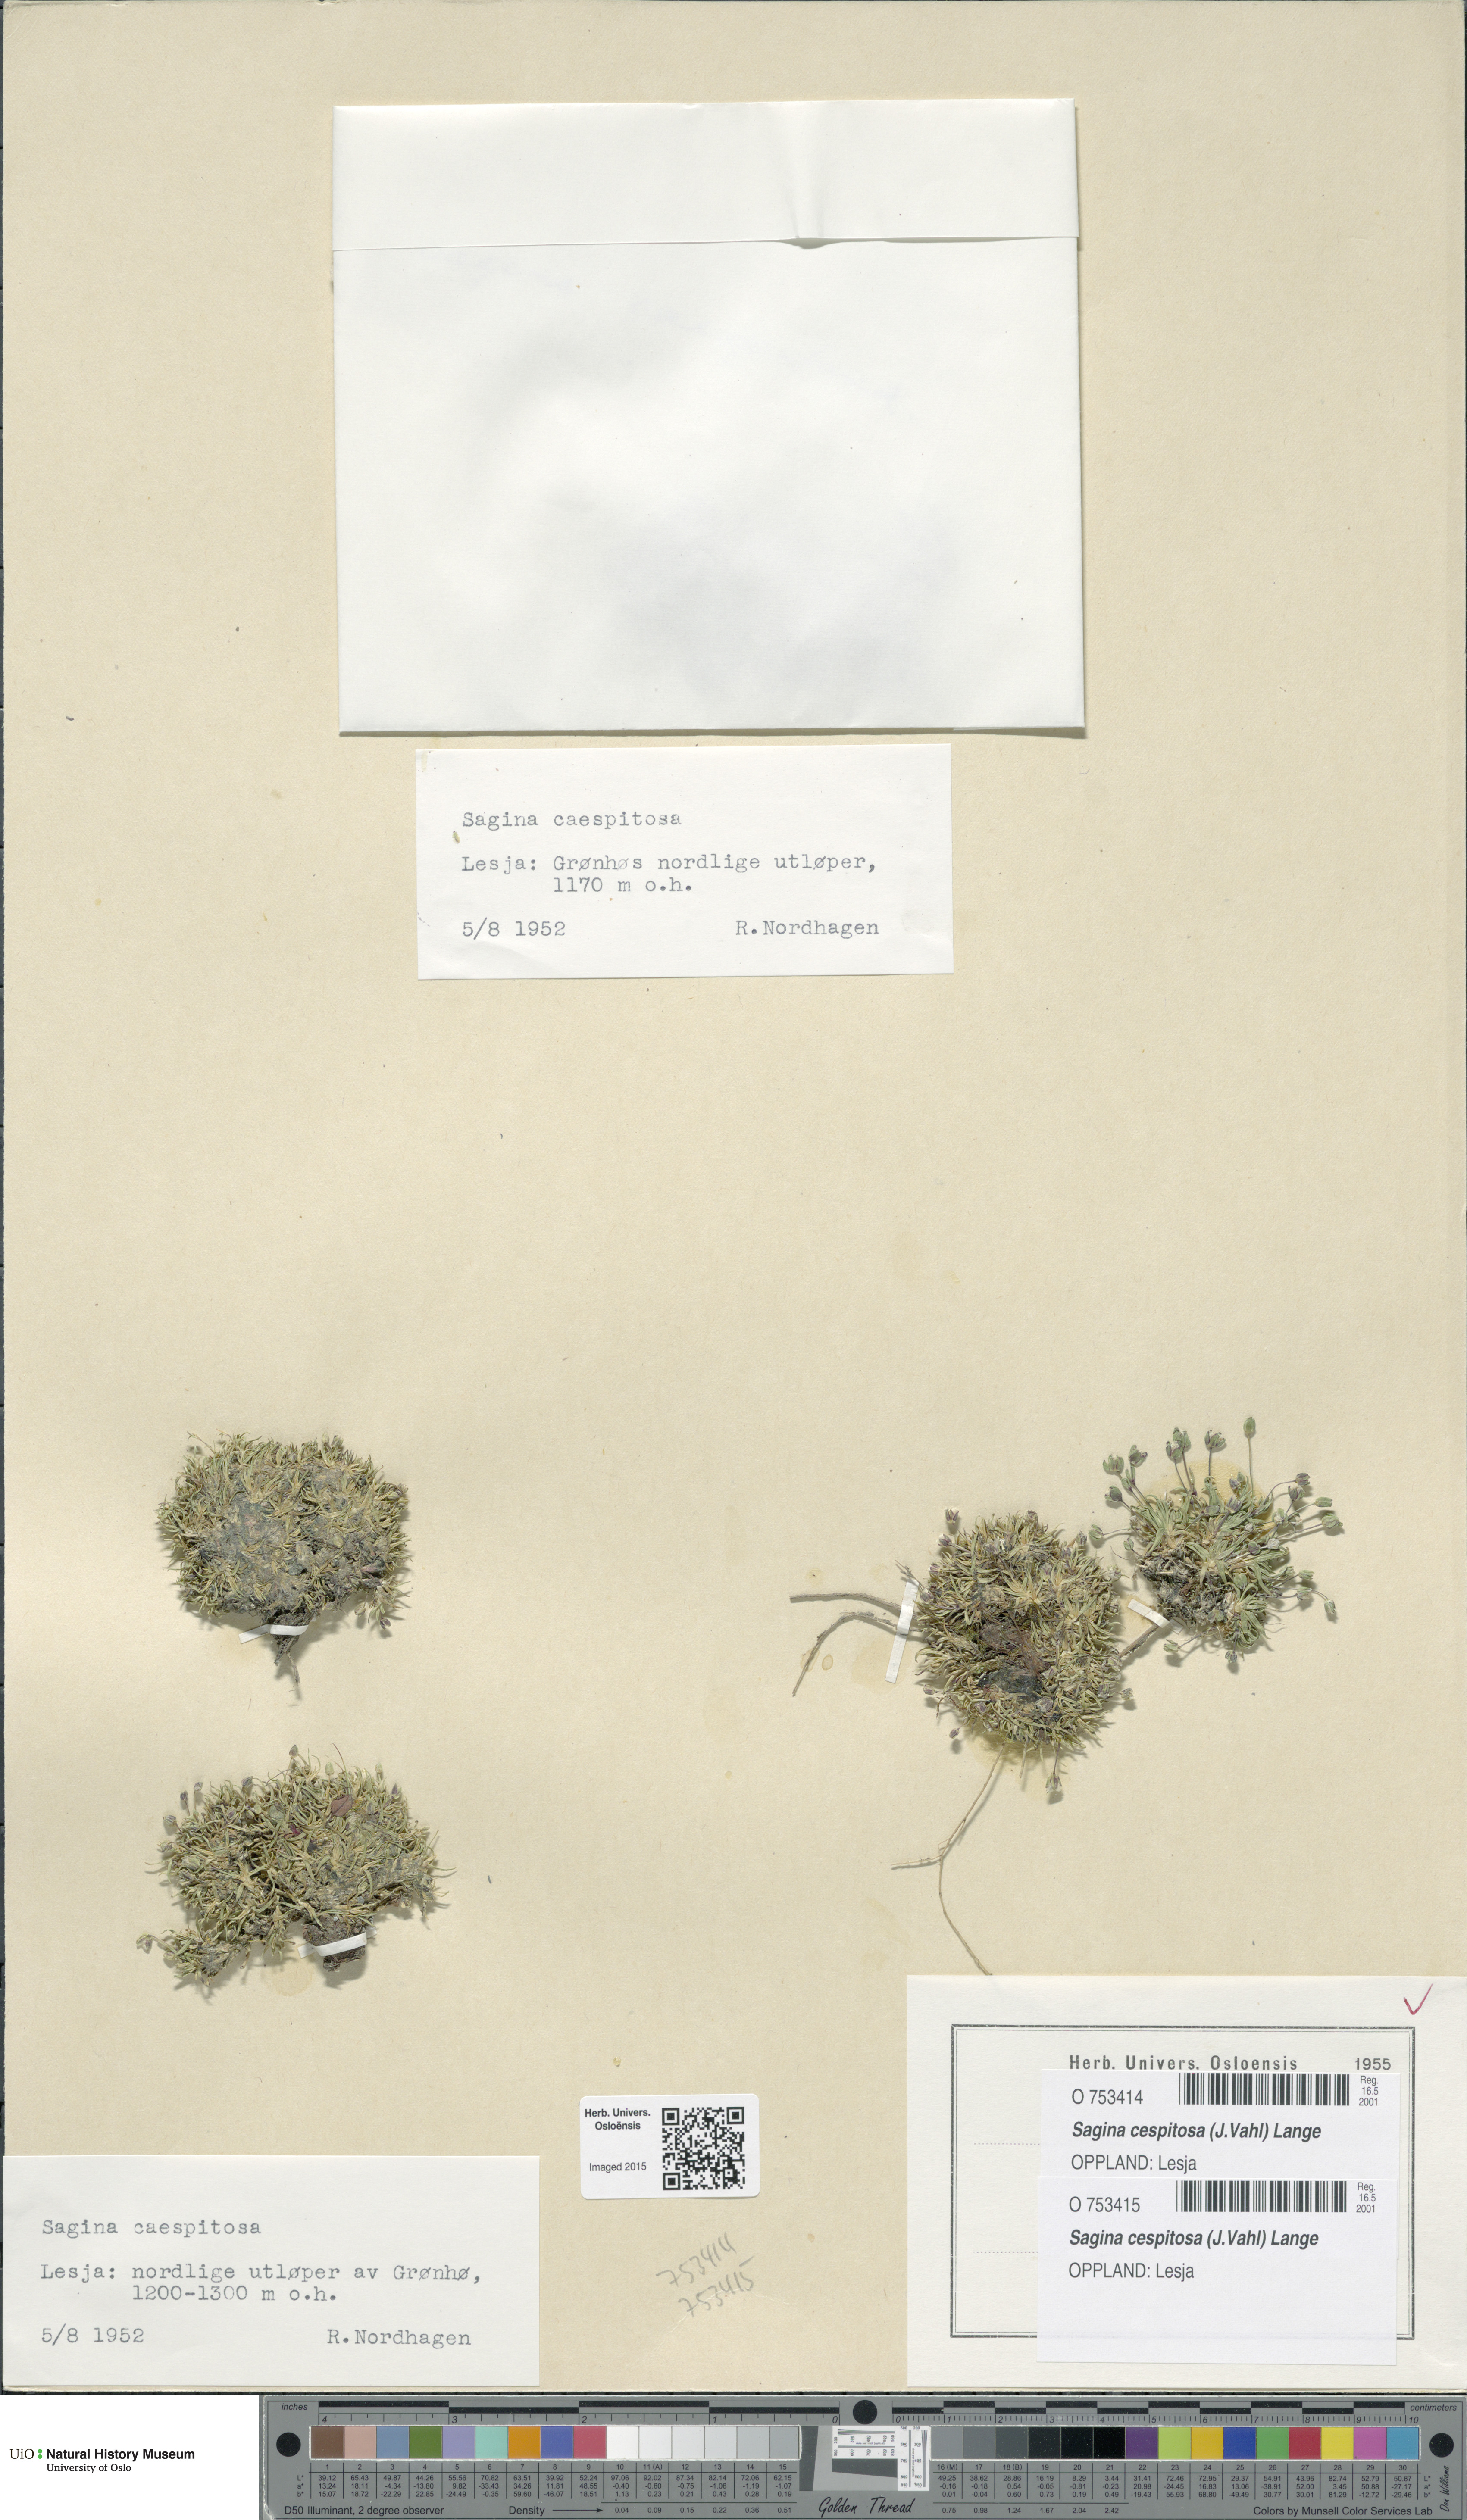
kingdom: Plantae
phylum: Tracheophyta
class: Magnoliopsida
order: Caryophyllales
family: Caryophyllaceae
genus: Sagina
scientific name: Sagina caespitosa
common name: Tufted pearlwort
